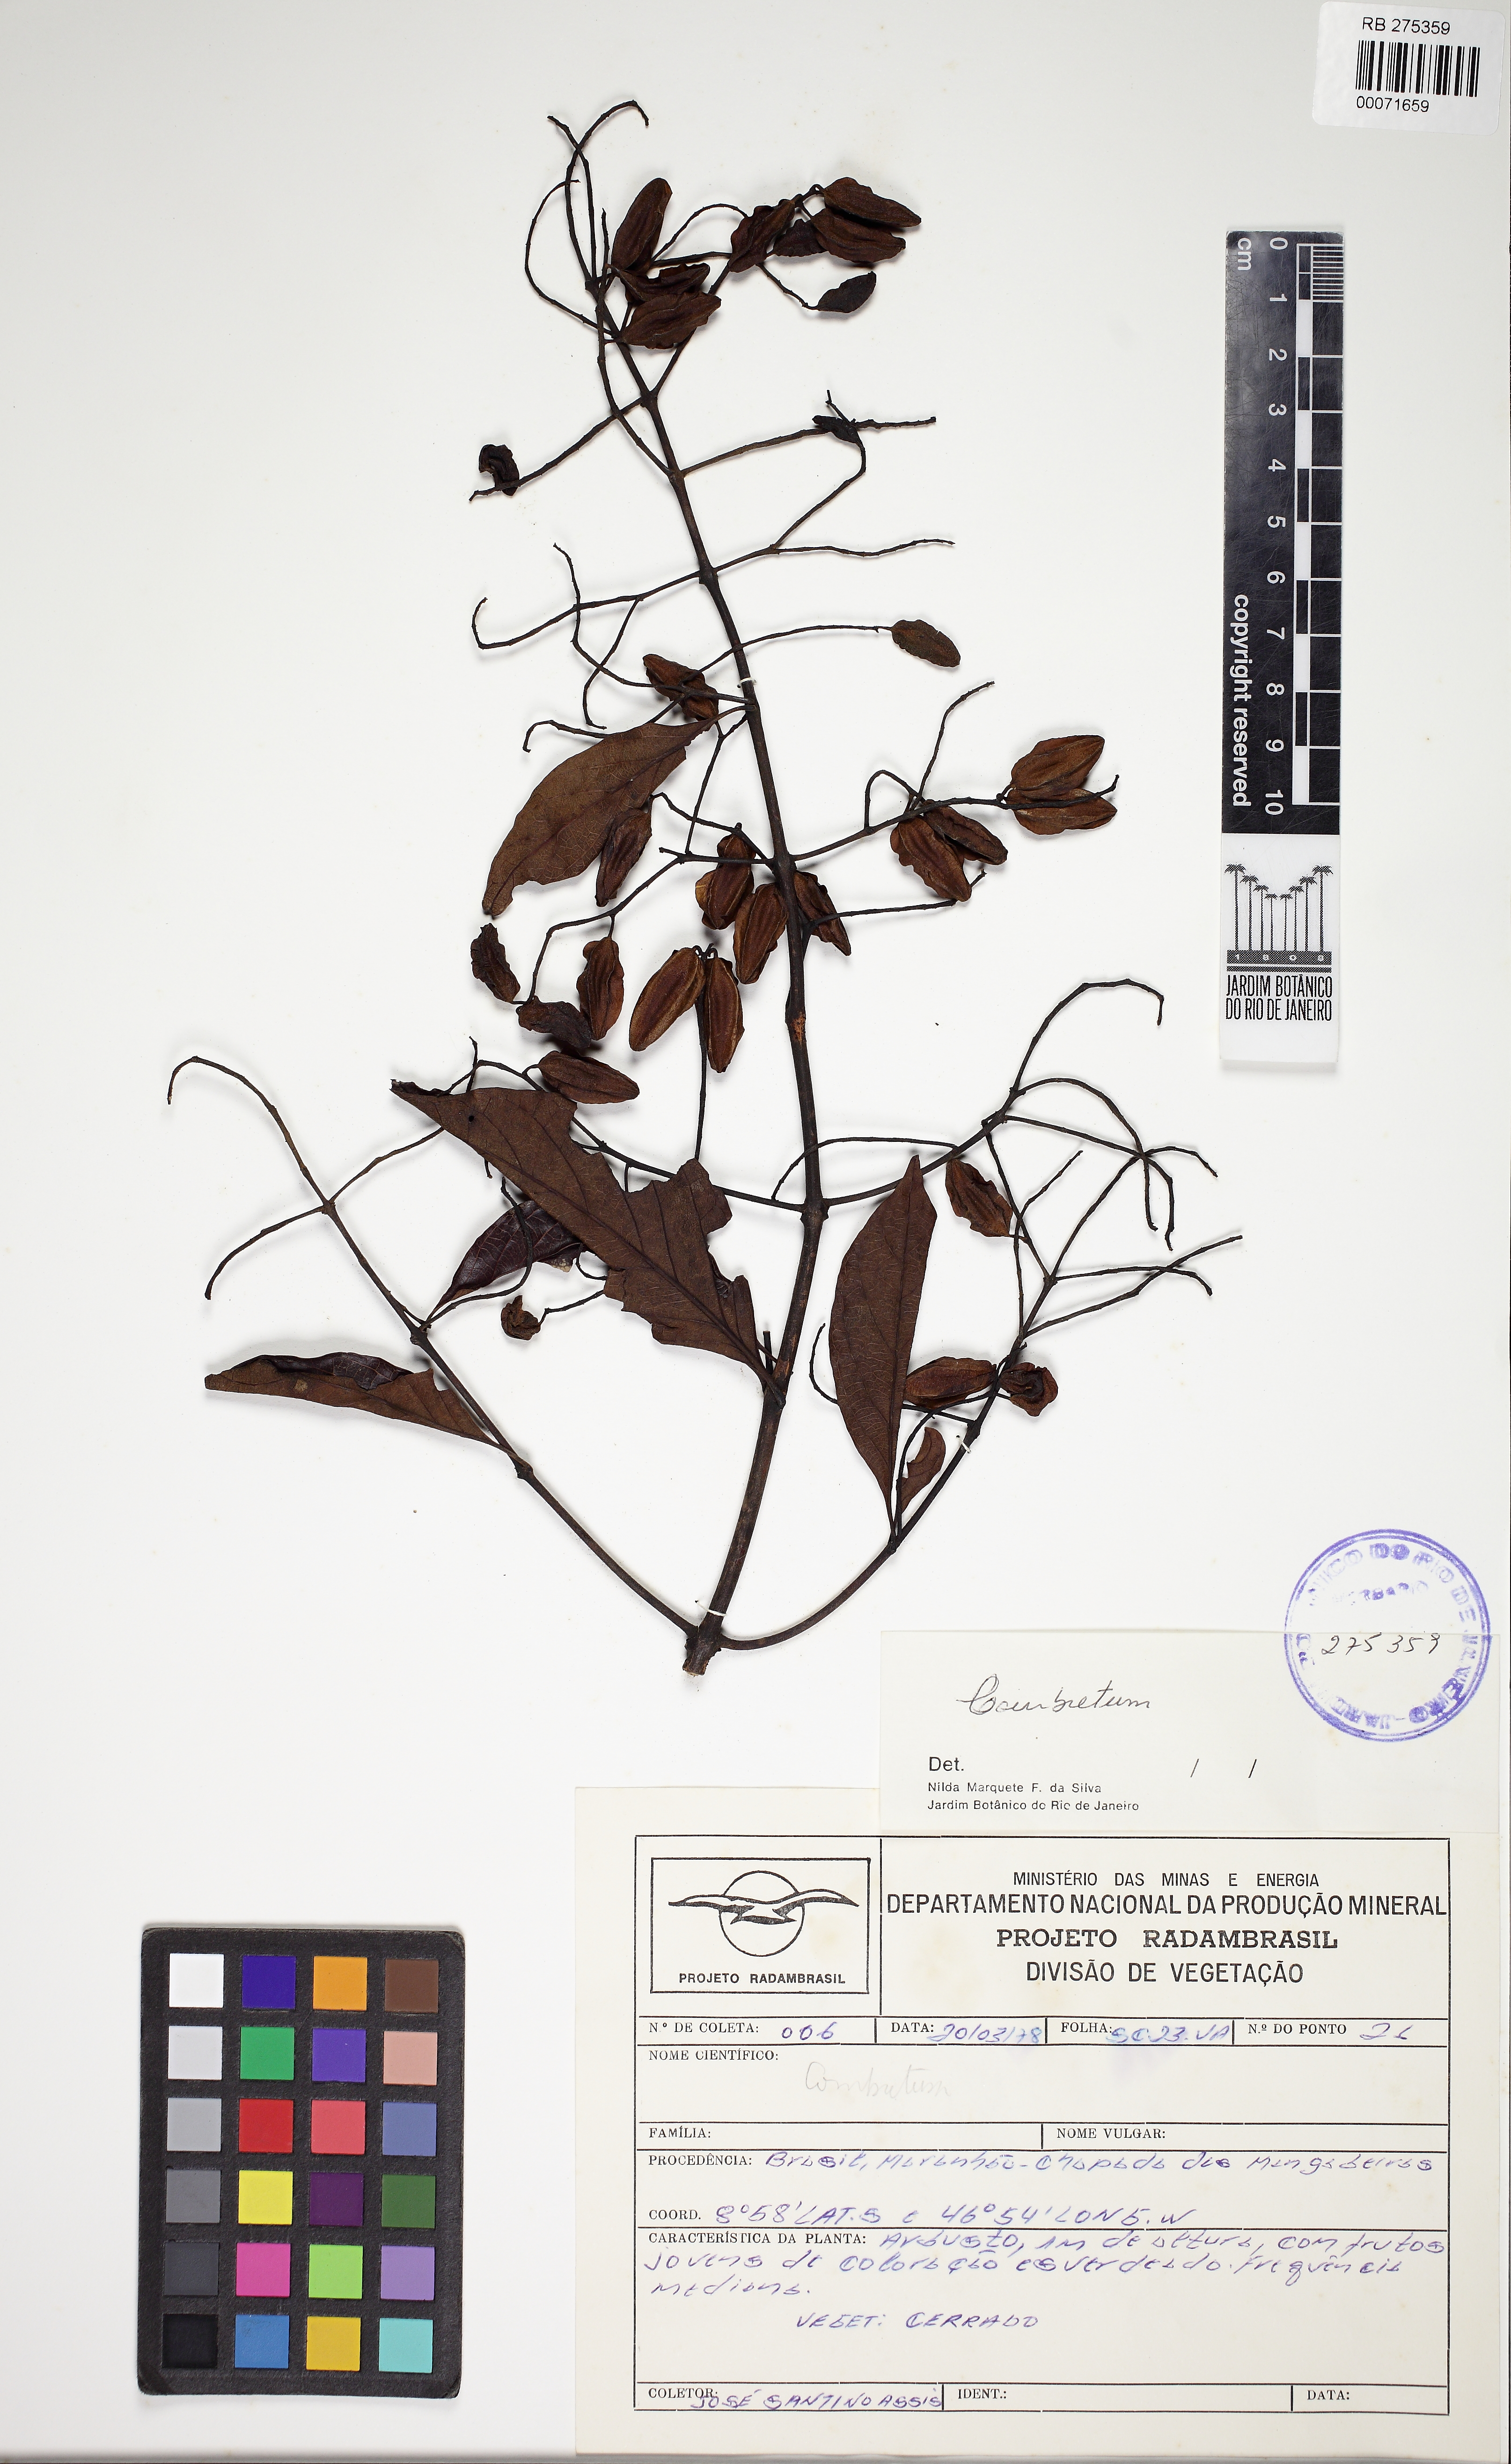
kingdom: Plantae
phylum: Tracheophyta
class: Magnoliopsida
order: Myrtales
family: Combretaceae
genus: Combretum
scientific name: Combretum
